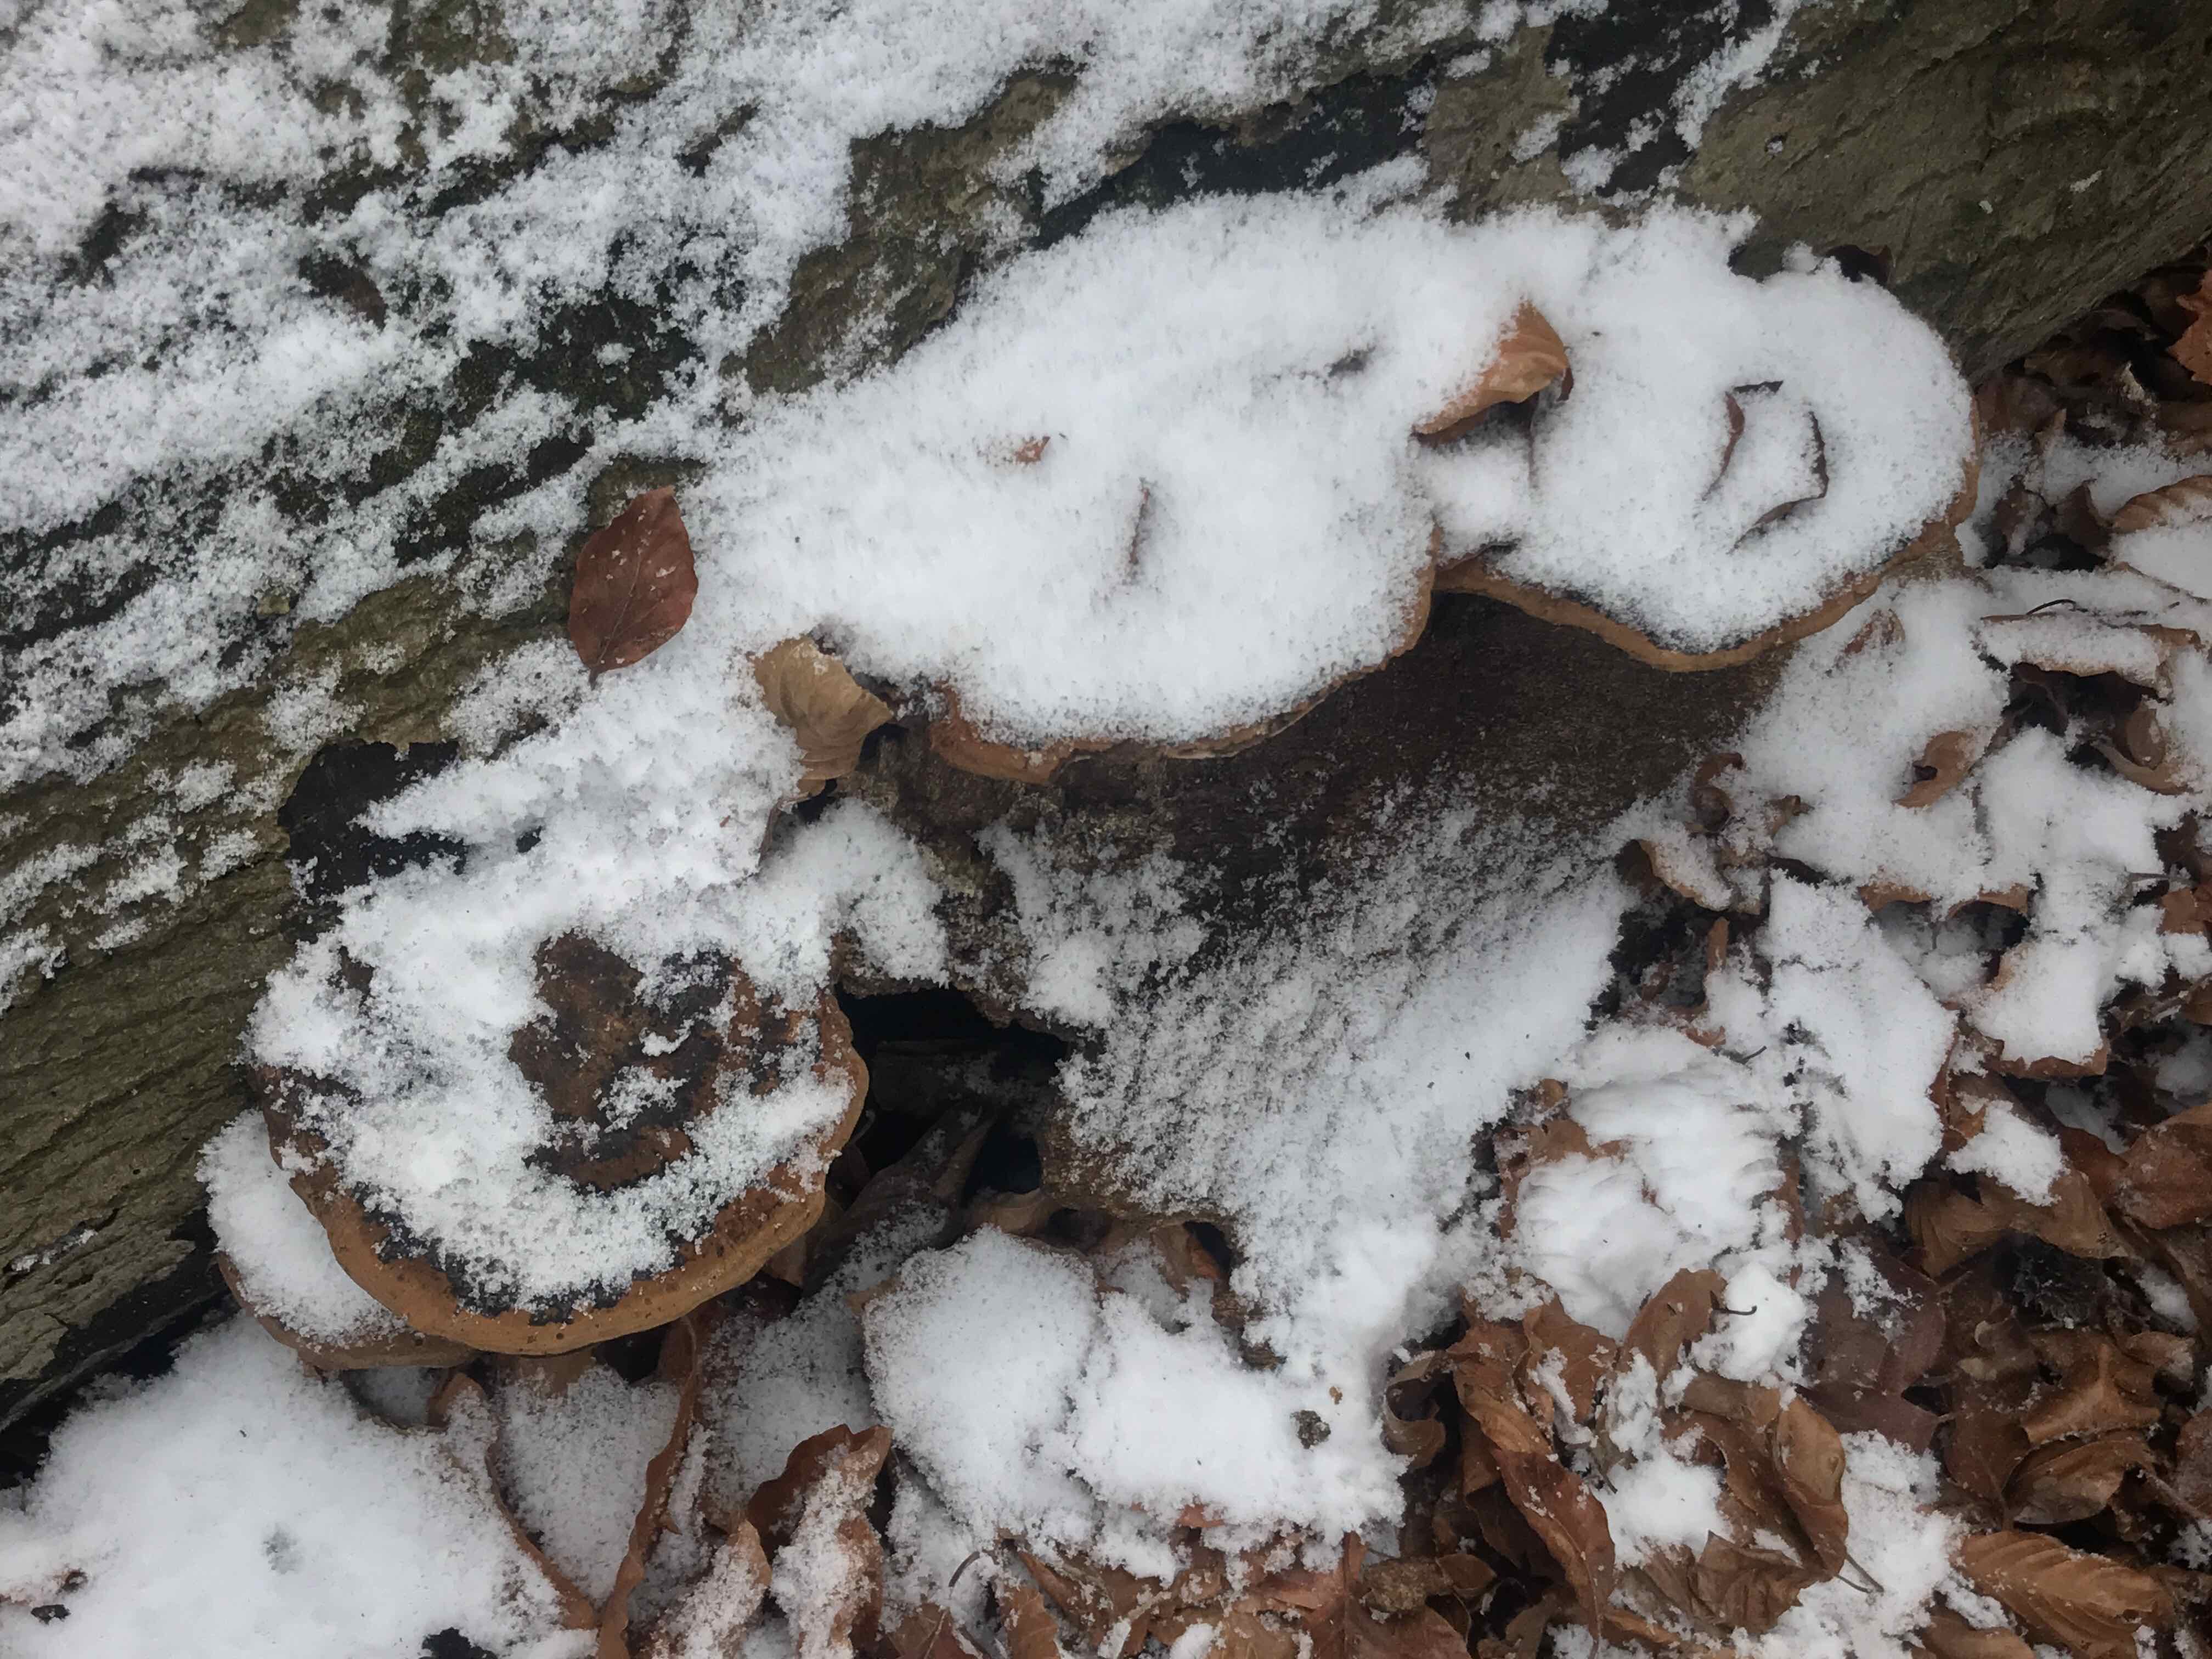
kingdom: Fungi
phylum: Basidiomycota
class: Agaricomycetes
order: Polyporales
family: Ischnodermataceae
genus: Ischnoderma
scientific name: Ischnoderma resinosum
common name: løv-tjæreporesvamp
